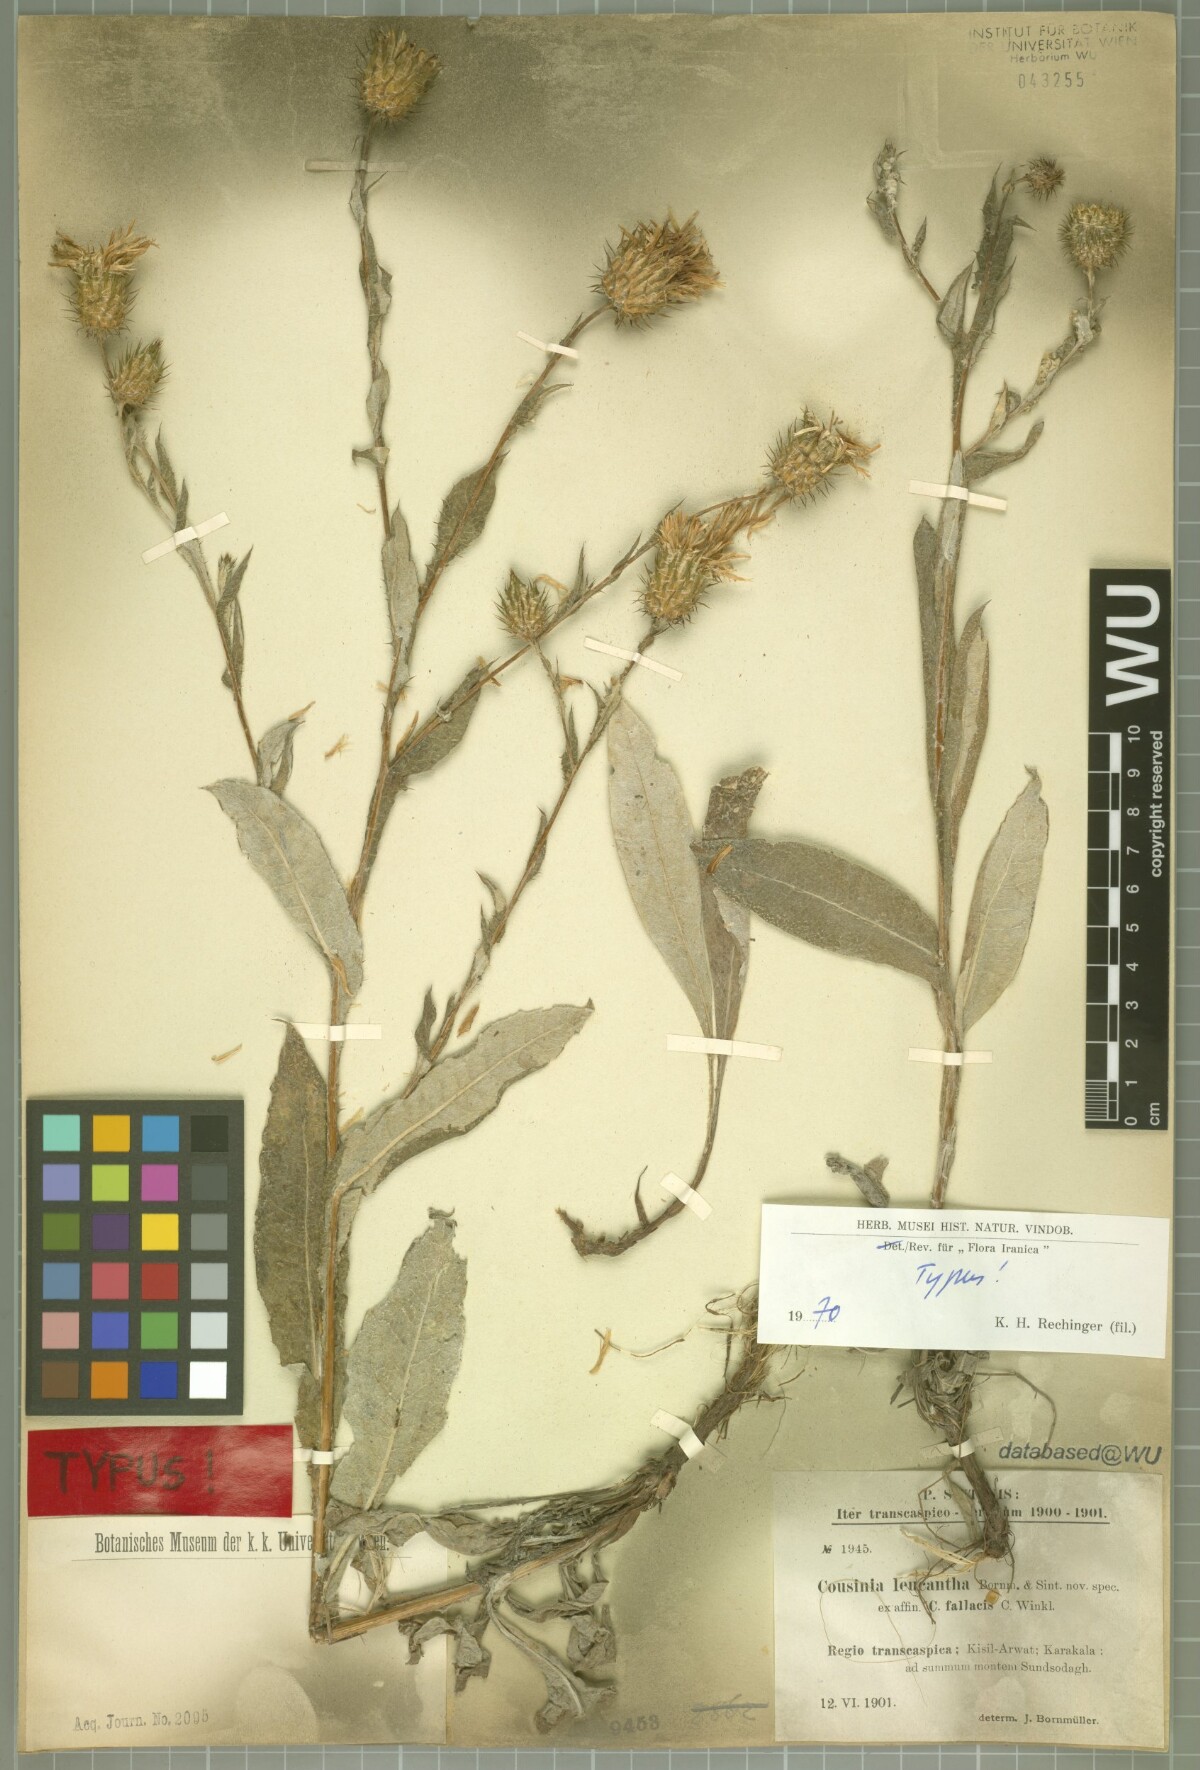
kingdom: Plantae
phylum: Tracheophyta
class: Magnoliopsida
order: Asterales
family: Asteraceae
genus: Cousinia
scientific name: Cousinia leucantha
